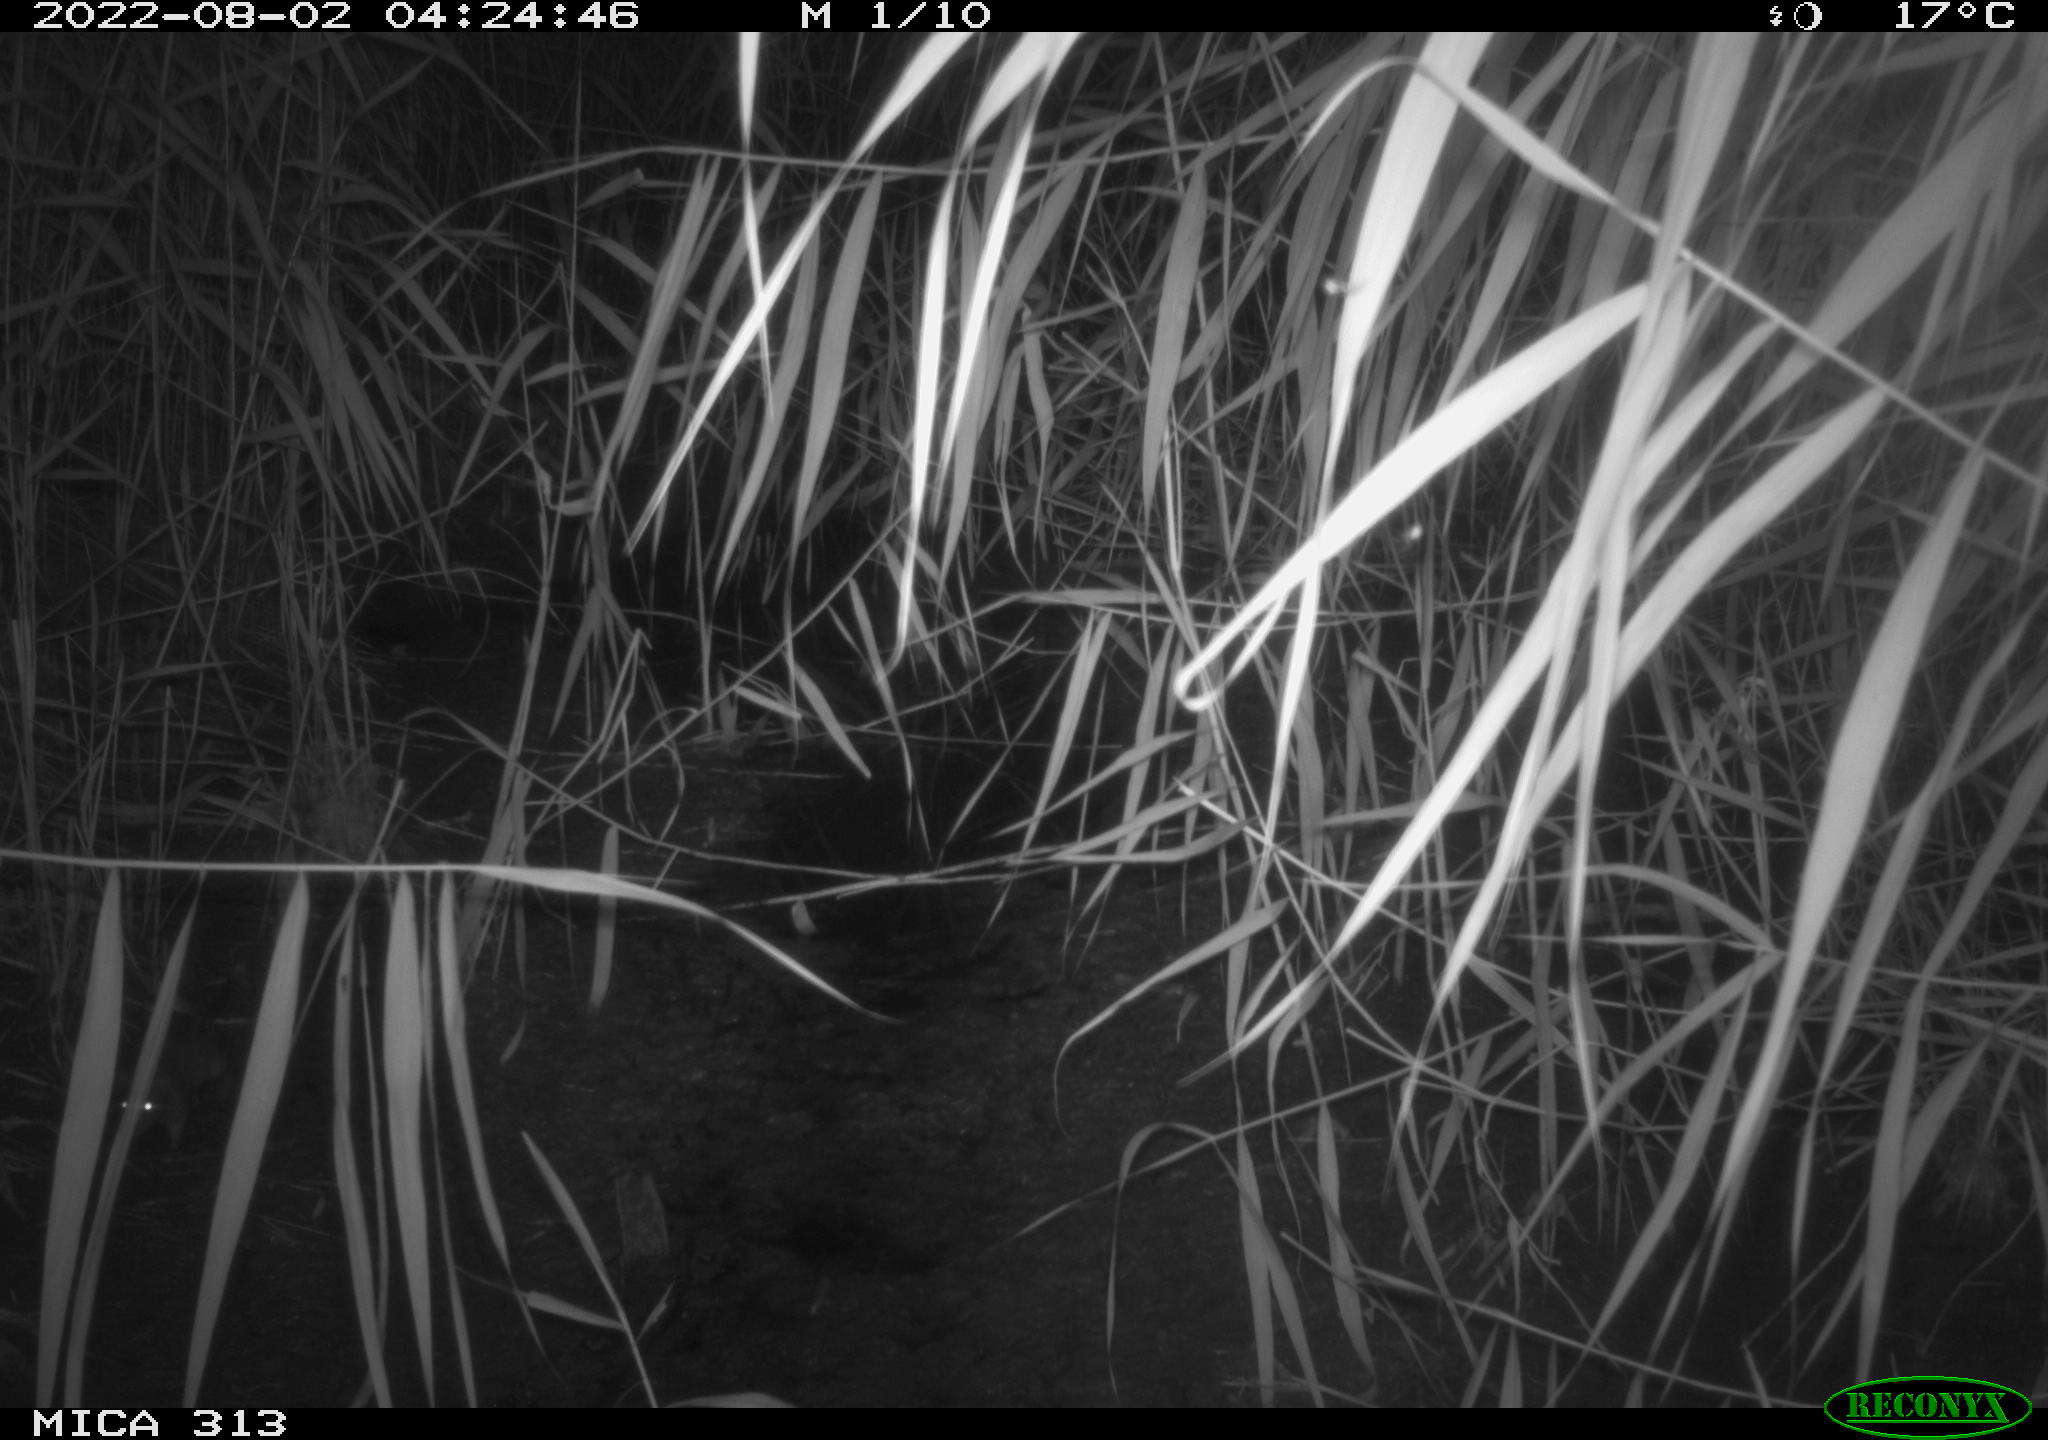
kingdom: Animalia
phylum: Chordata
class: Mammalia
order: Rodentia
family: Muridae
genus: Rattus
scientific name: Rattus norvegicus
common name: Brown rat
